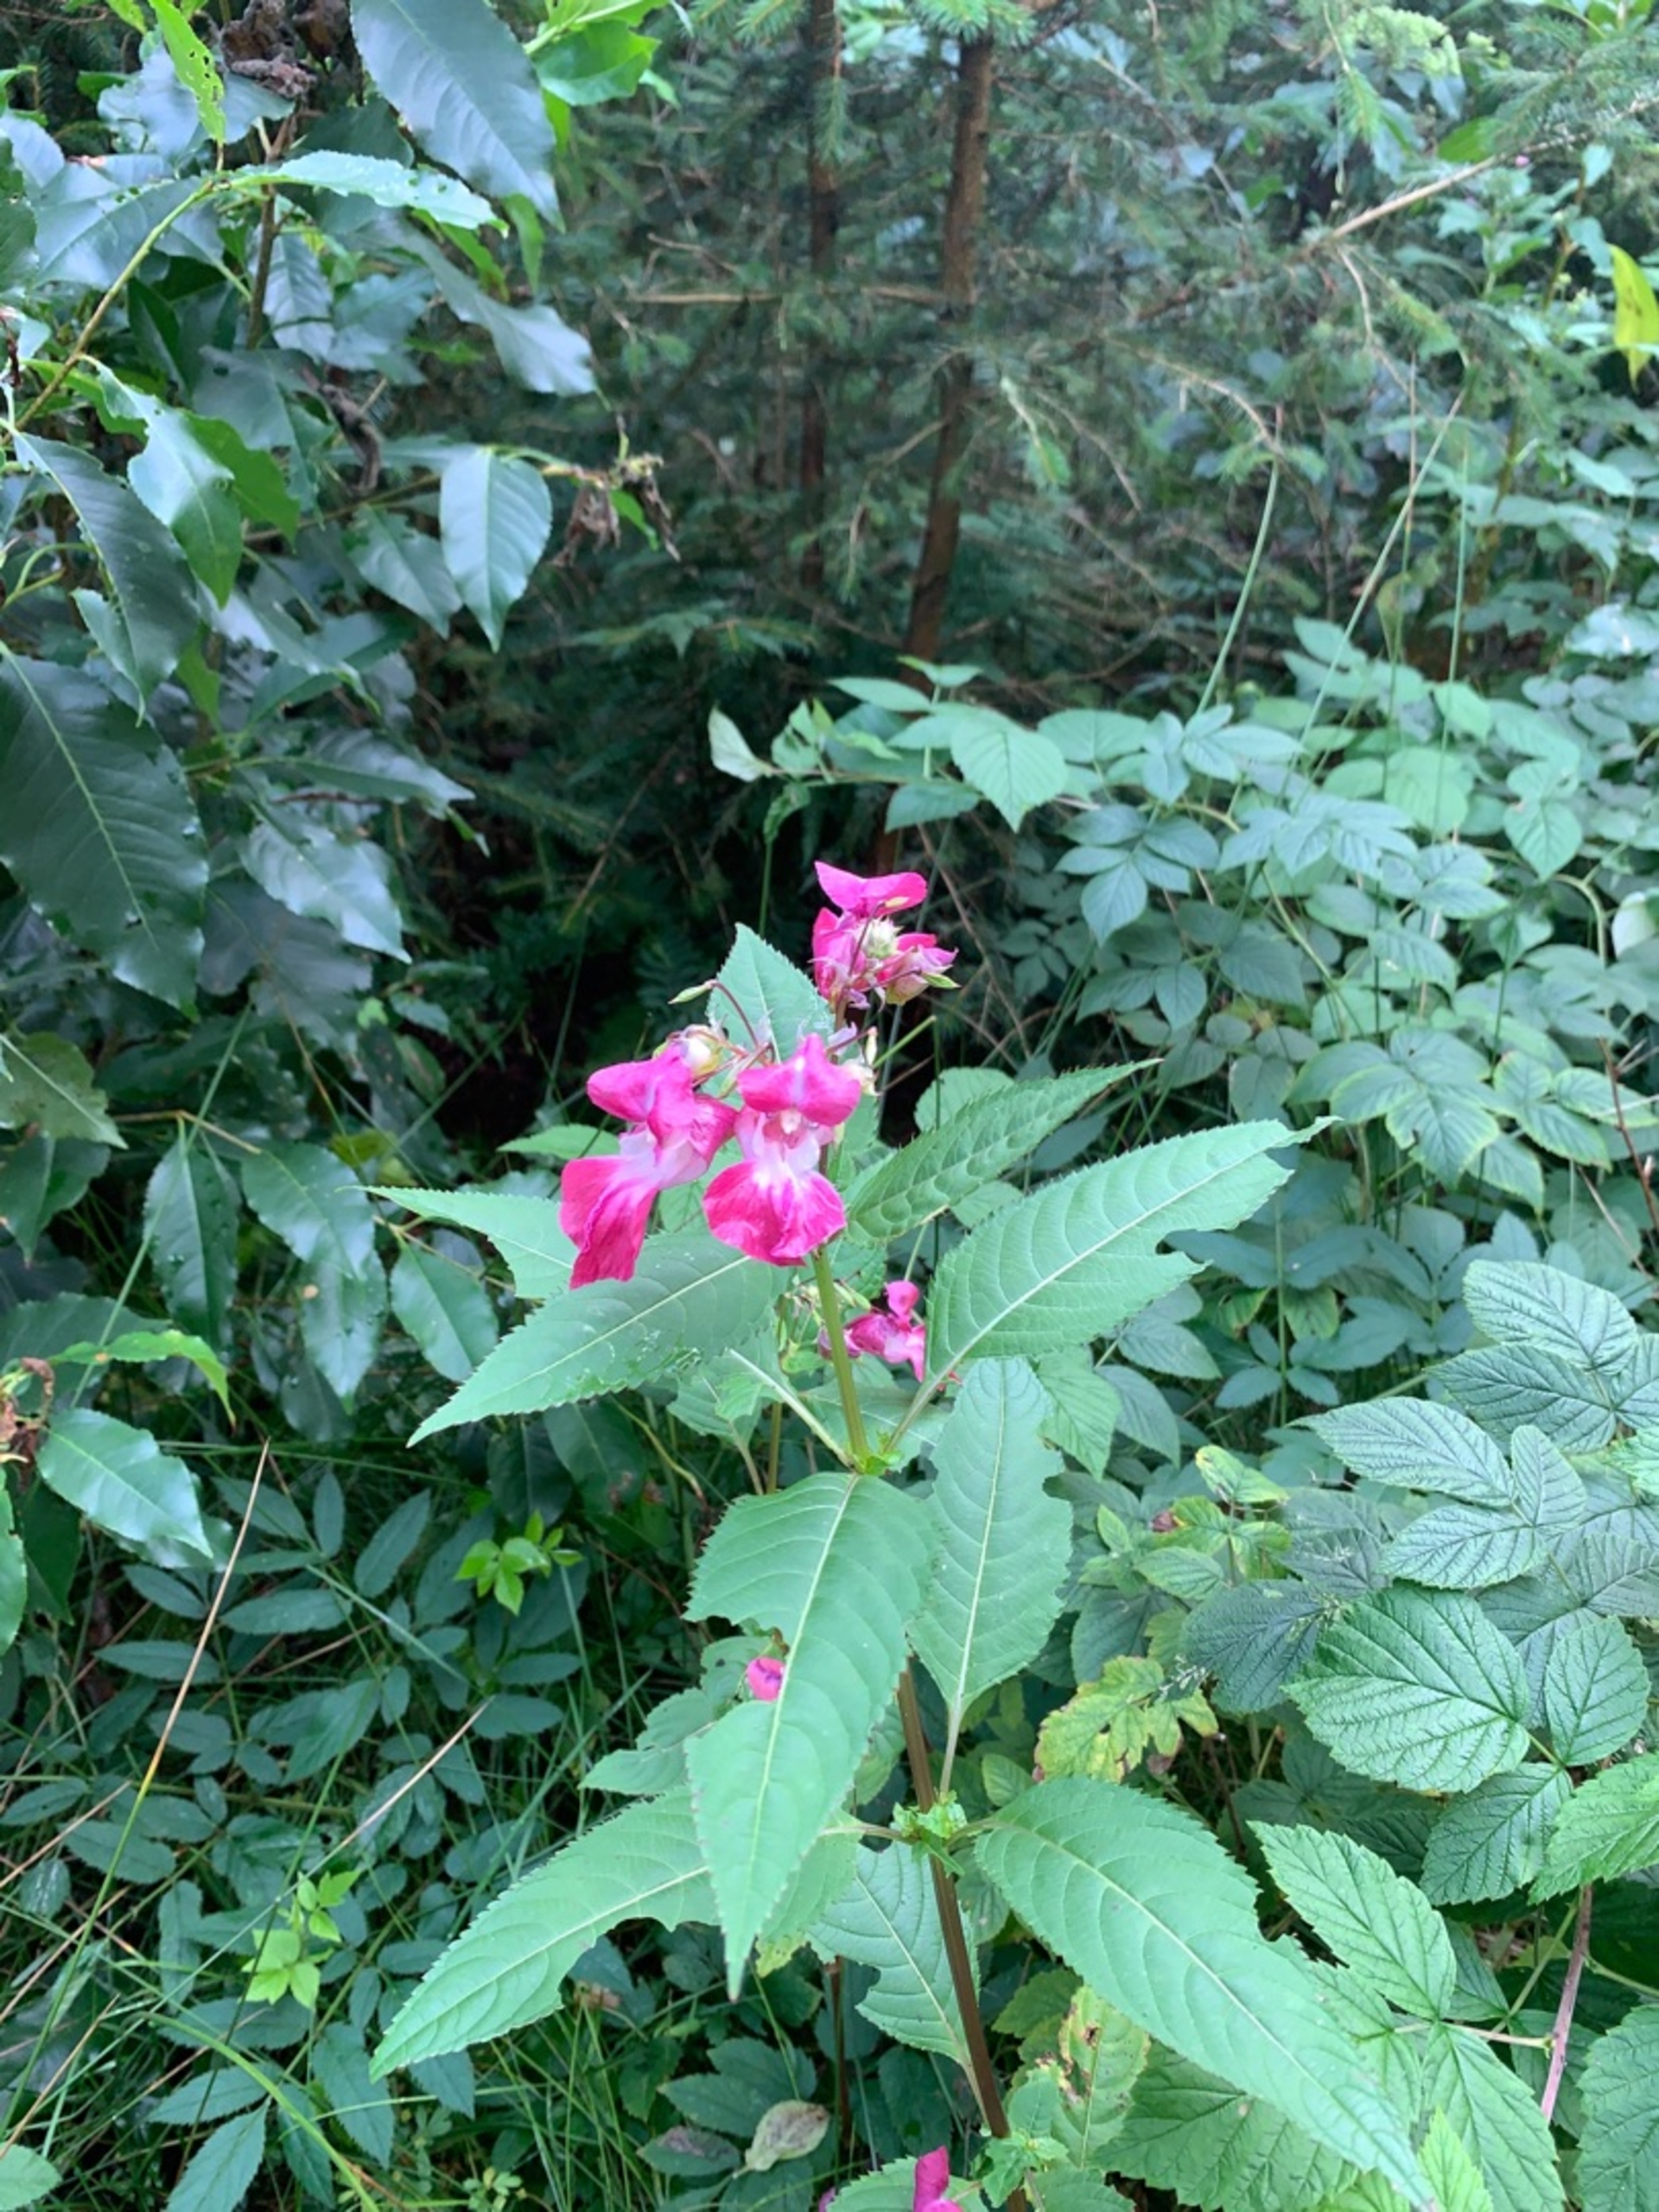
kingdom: Plantae
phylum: Tracheophyta
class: Magnoliopsida
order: Ericales
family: Balsaminaceae
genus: Impatiens
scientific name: Impatiens glandulifera
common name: Kæmpe-balsamin
